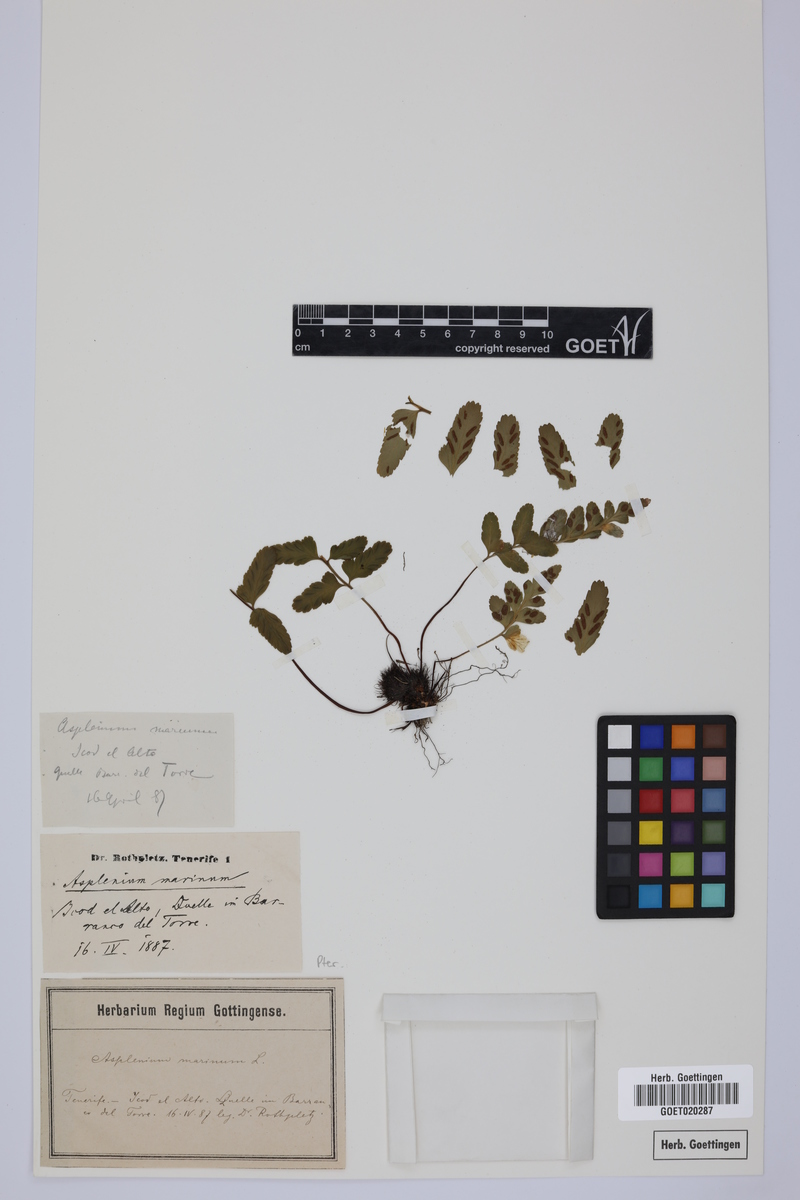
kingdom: Plantae
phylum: Tracheophyta
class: Polypodiopsida
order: Polypodiales
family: Aspleniaceae
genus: Asplenium
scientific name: Asplenium marinum
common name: Sea spleenwort
